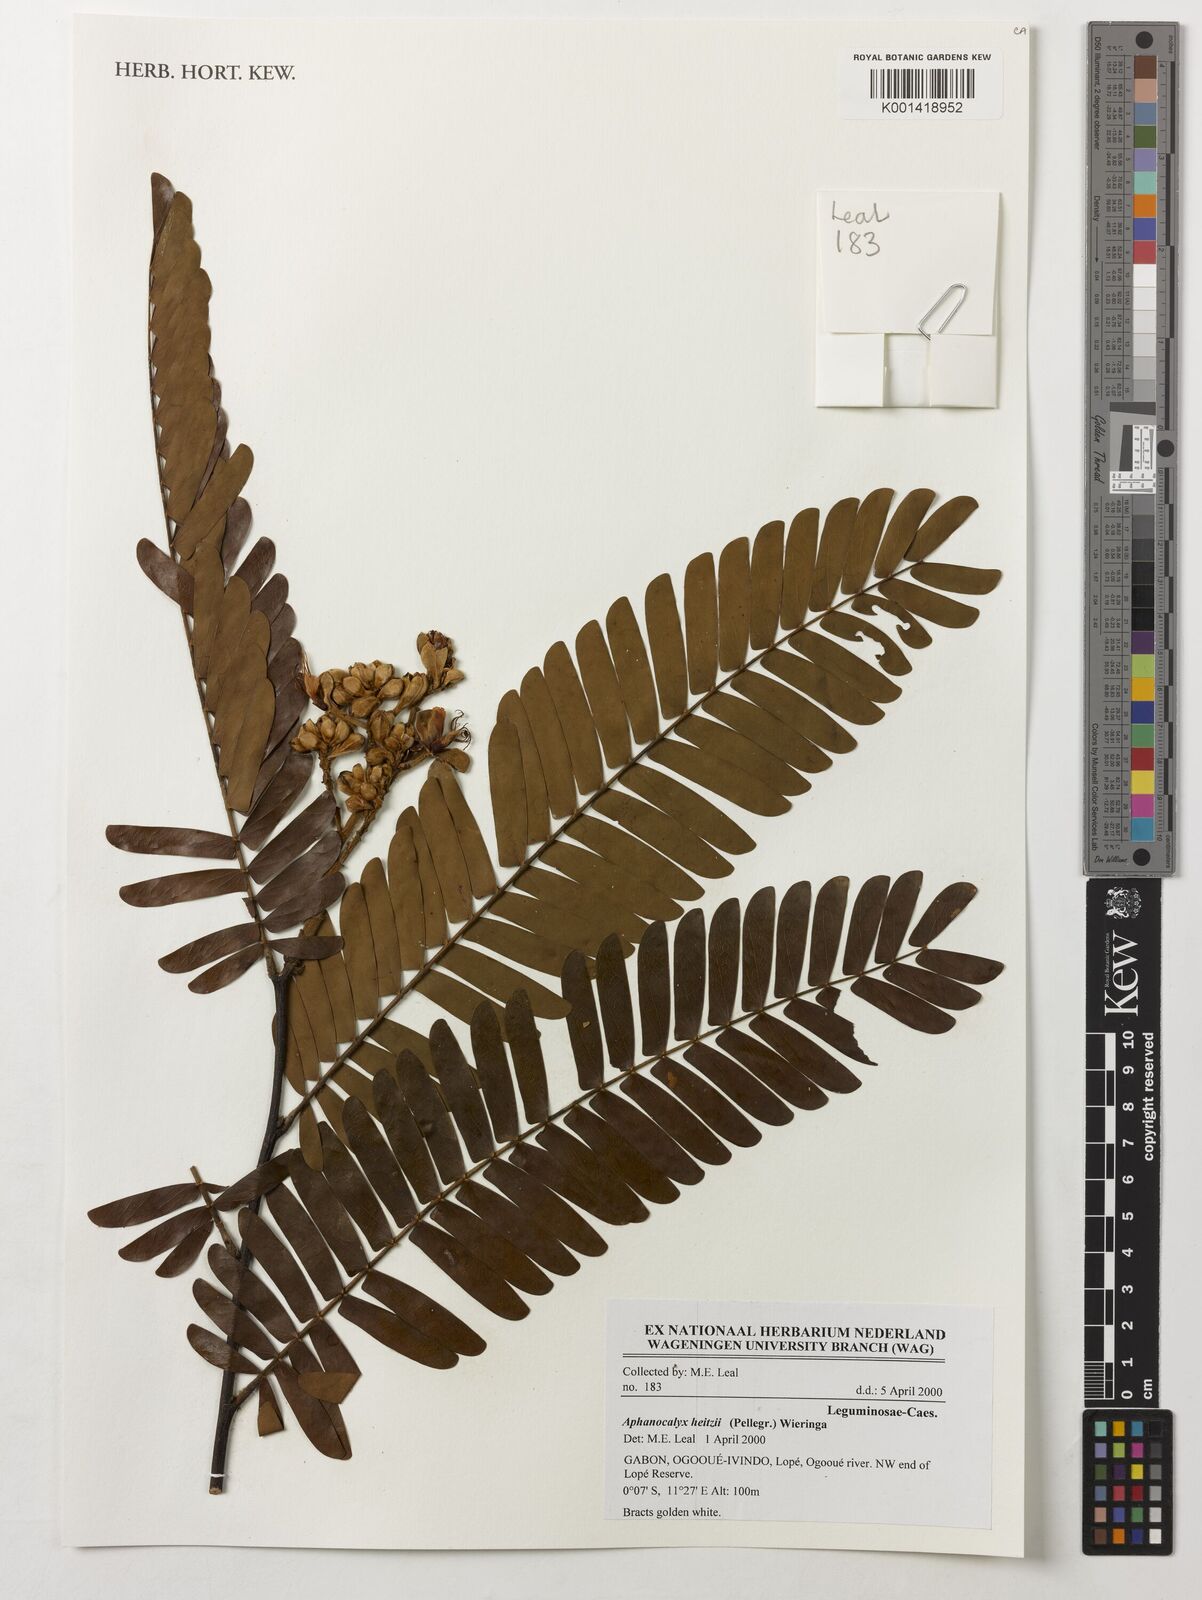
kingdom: Plantae
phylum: Tracheophyta
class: Magnoliopsida
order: Fabales
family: Fabaceae
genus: Aphanocalyx
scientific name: Aphanocalyx heitzii
